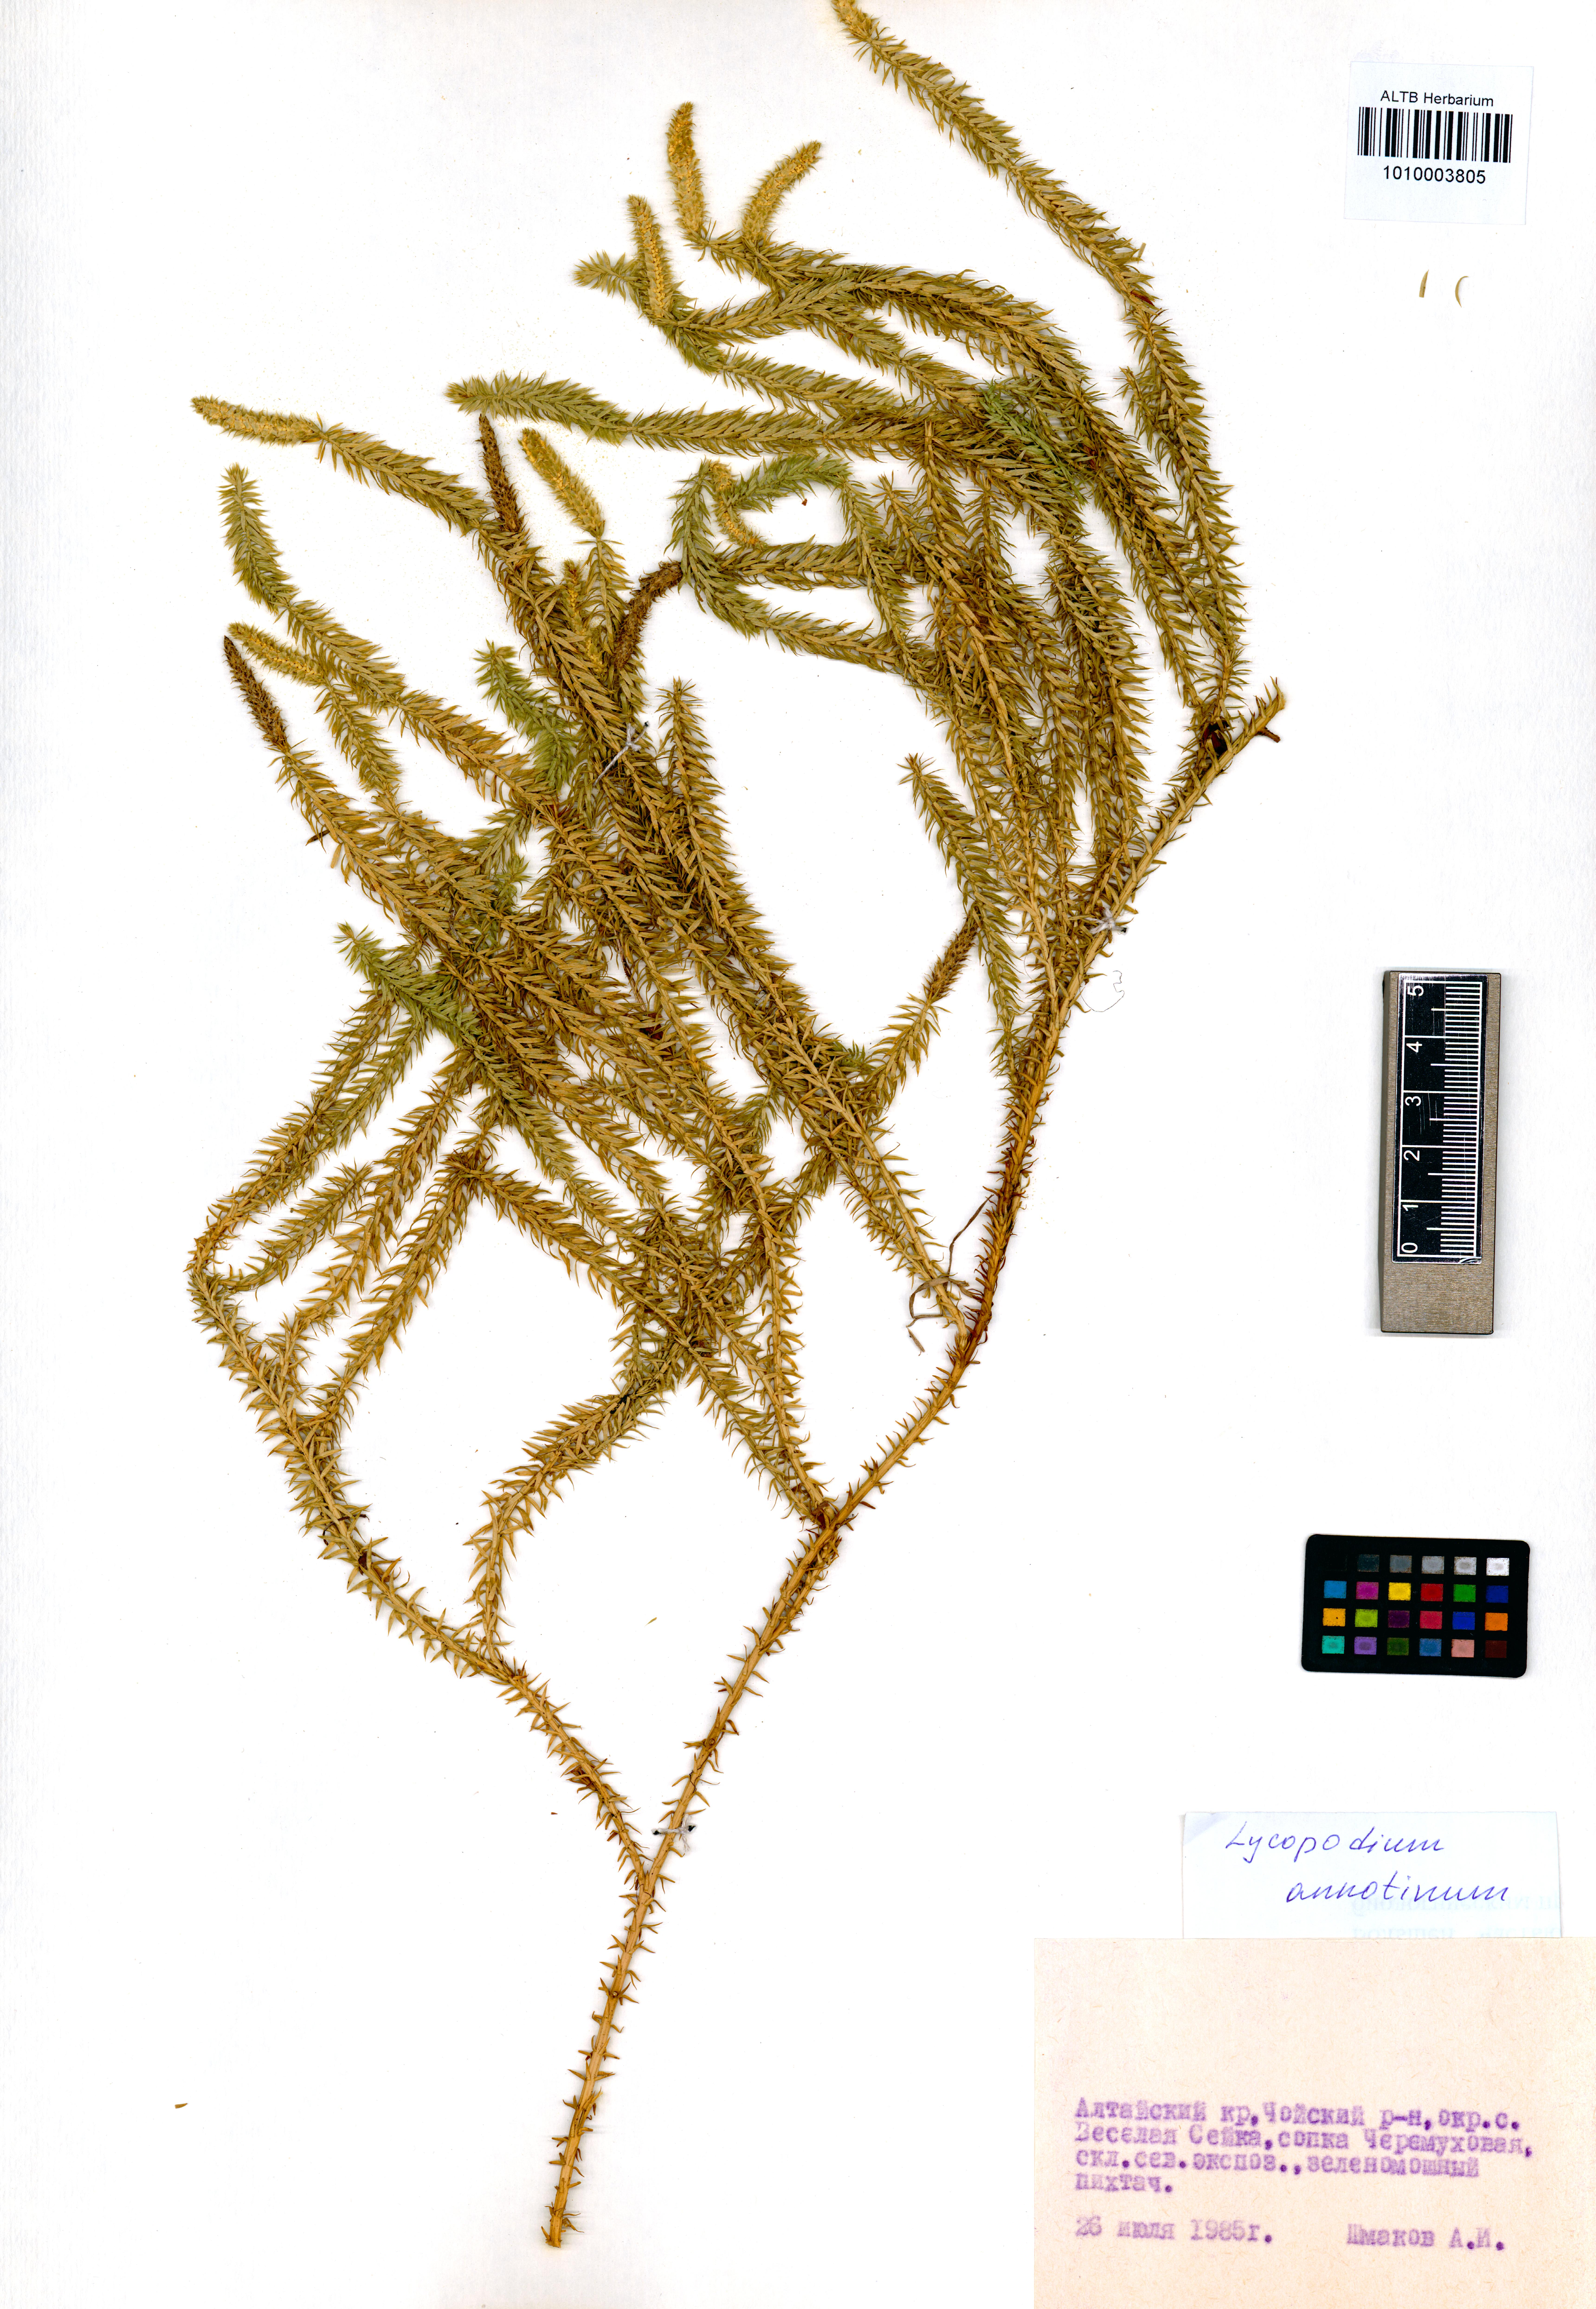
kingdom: Plantae
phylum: Tracheophyta
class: Lycopodiopsida
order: Lycopodiales
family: Lycopodiaceae
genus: Spinulum
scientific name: Spinulum annotinum
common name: Interrupted club-moss
